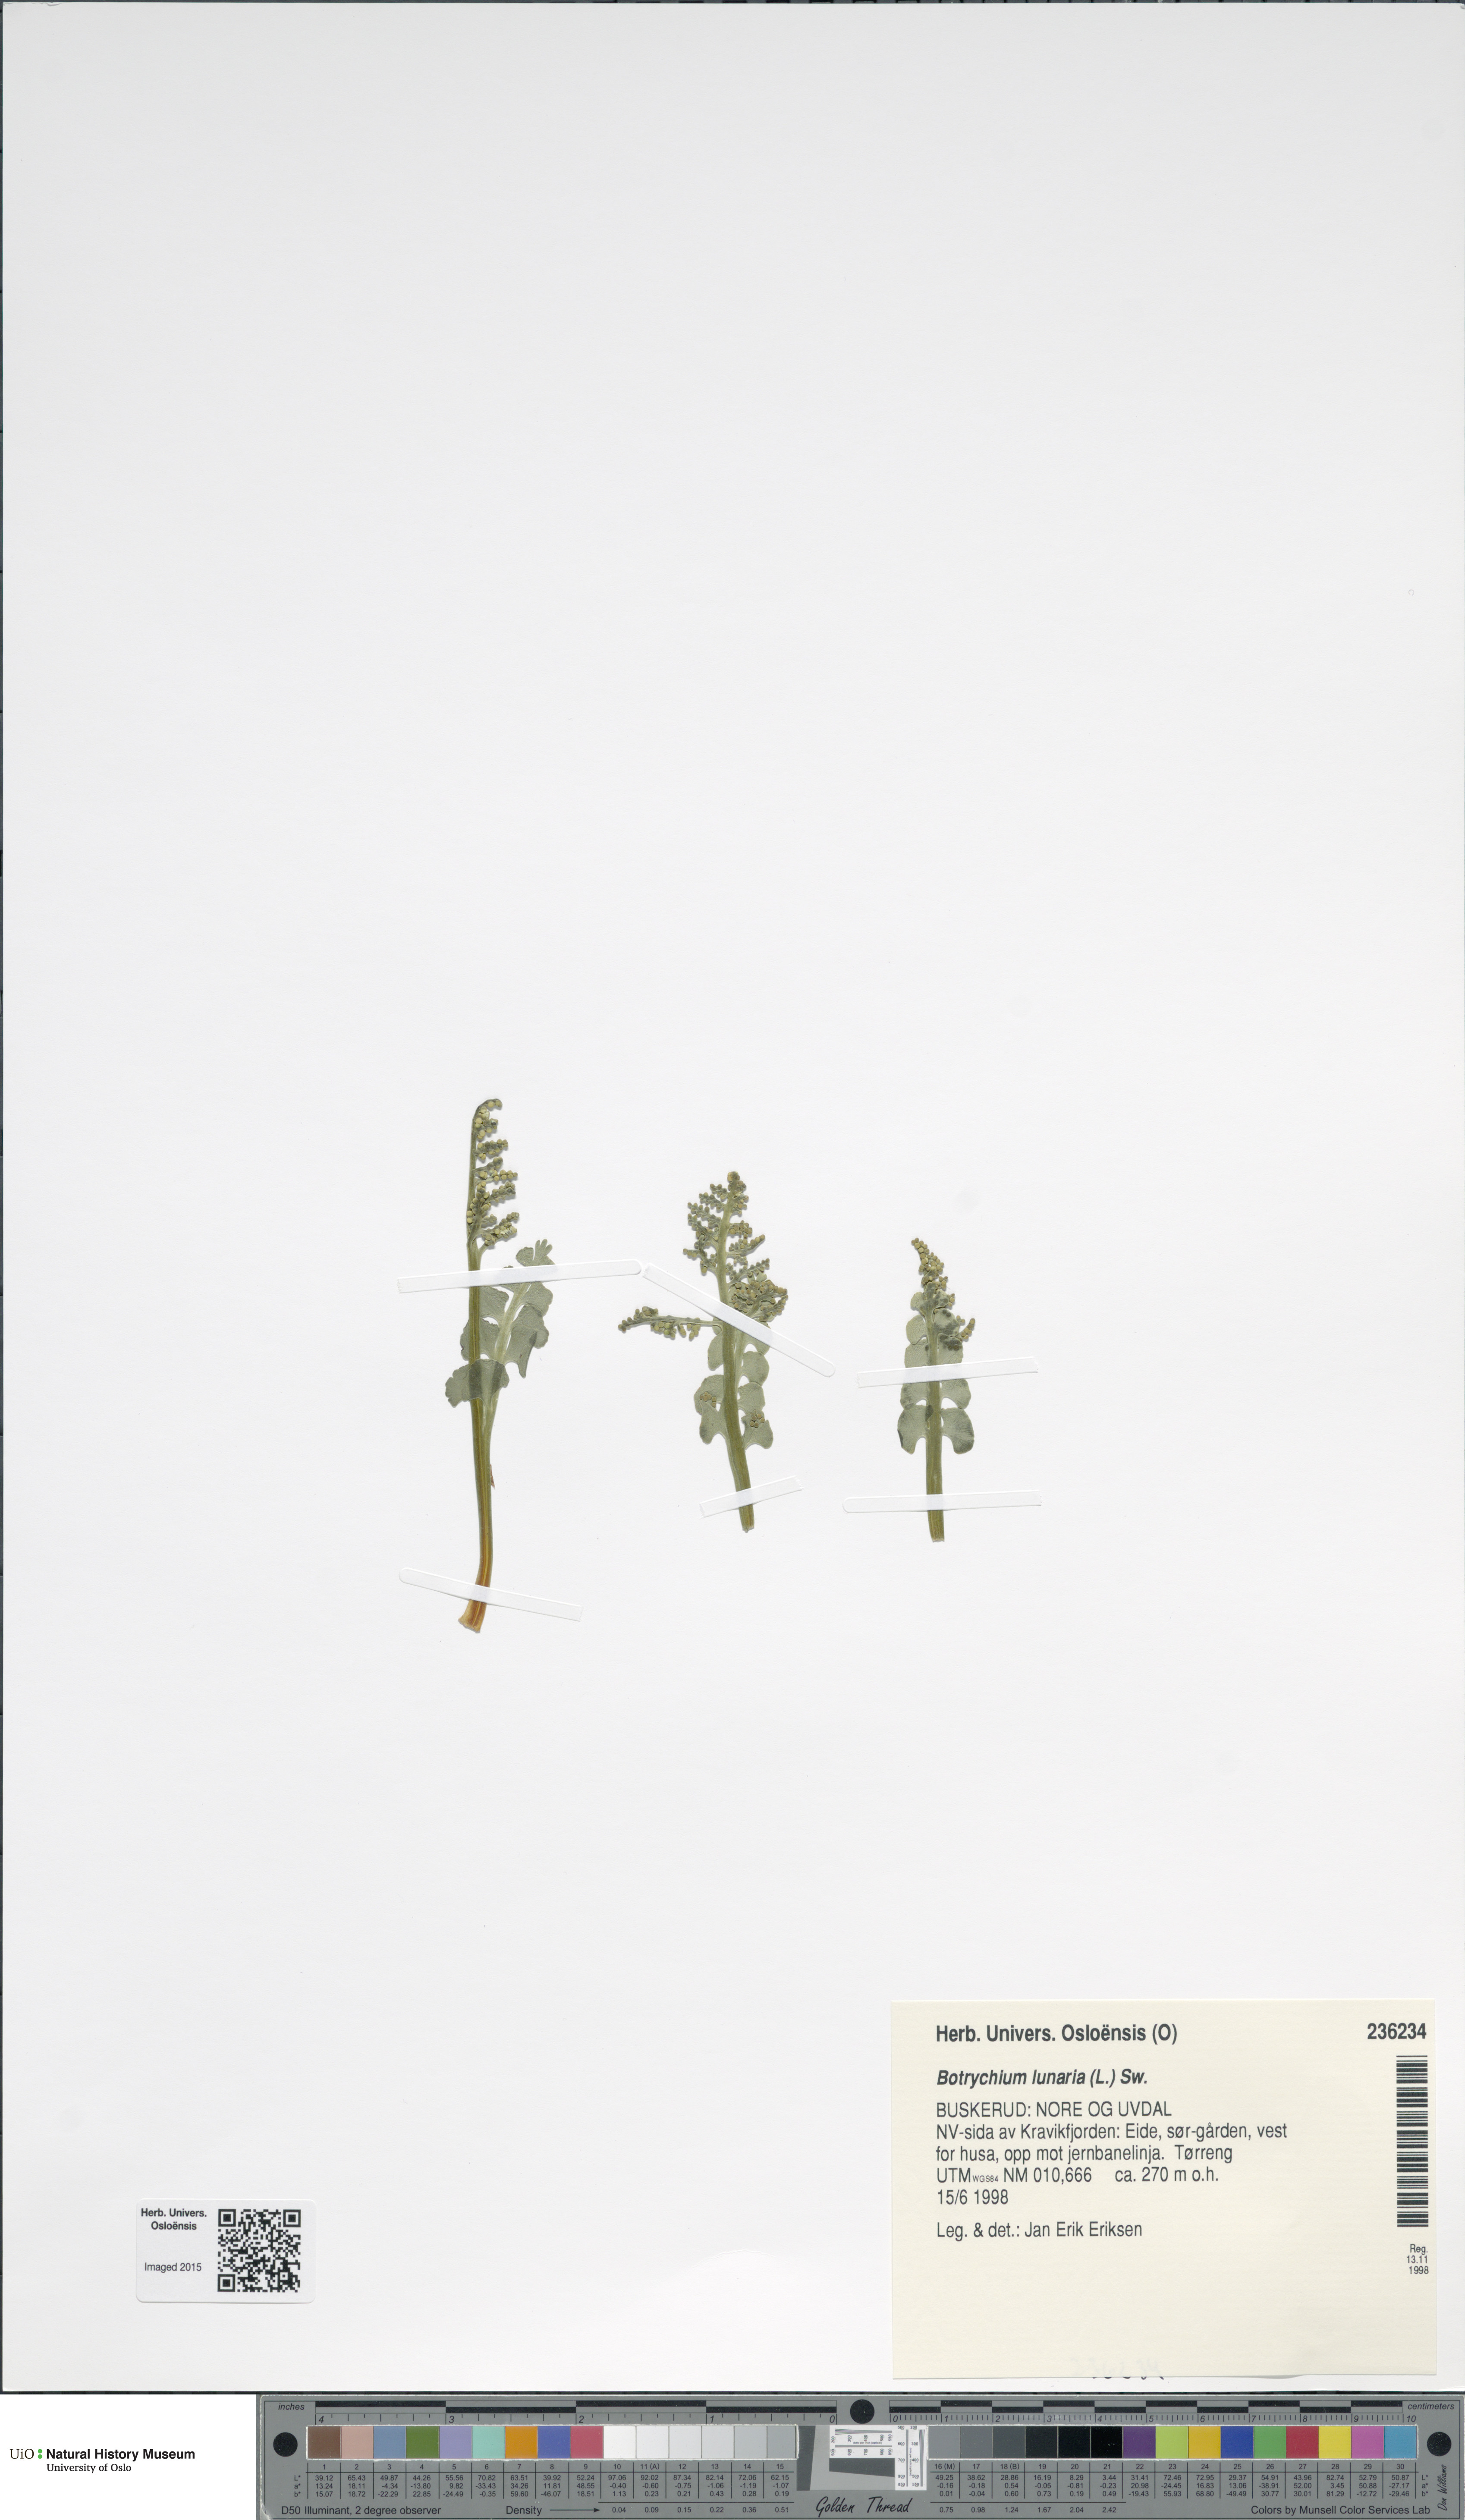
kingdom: Plantae
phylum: Tracheophyta
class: Polypodiopsida
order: Ophioglossales
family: Ophioglossaceae
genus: Botrychium
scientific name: Botrychium lunaria
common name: Moonwort
